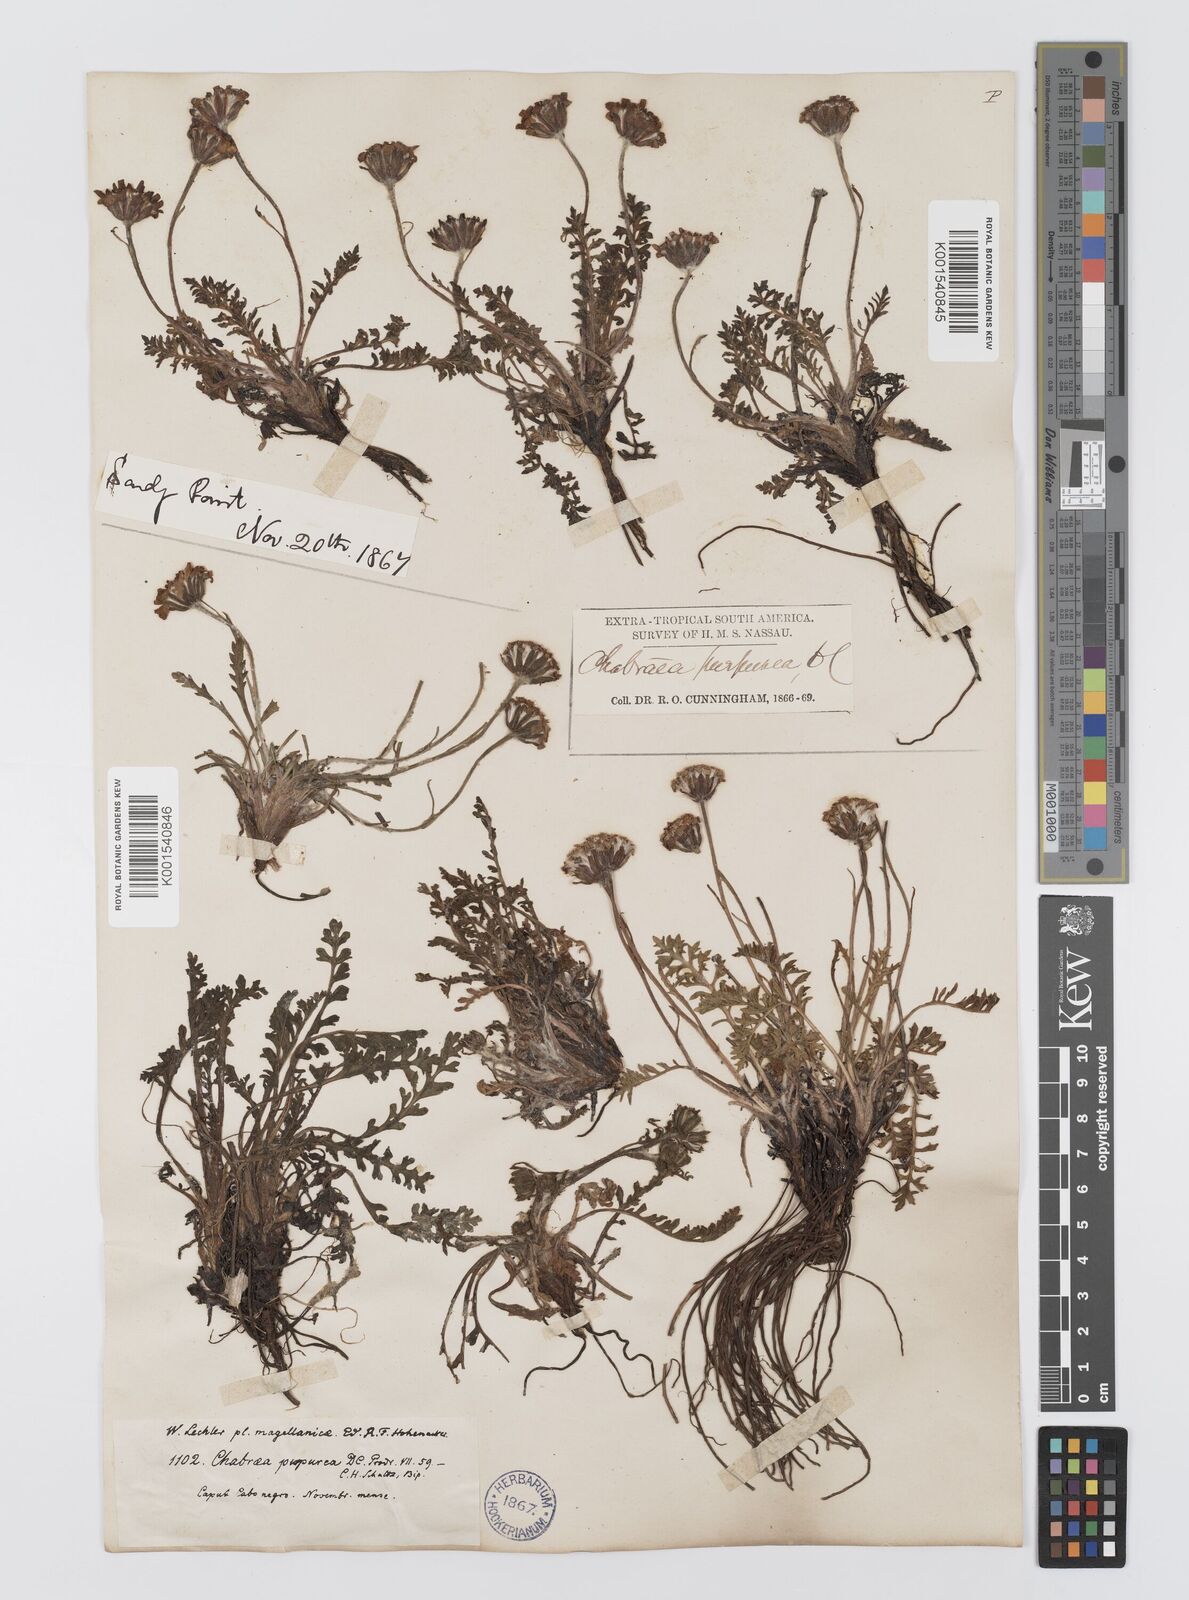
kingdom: Plantae
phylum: Tracheophyta
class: Magnoliopsida
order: Asterales
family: Asteraceae
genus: Leucheria
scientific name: Leucheria purpurea
